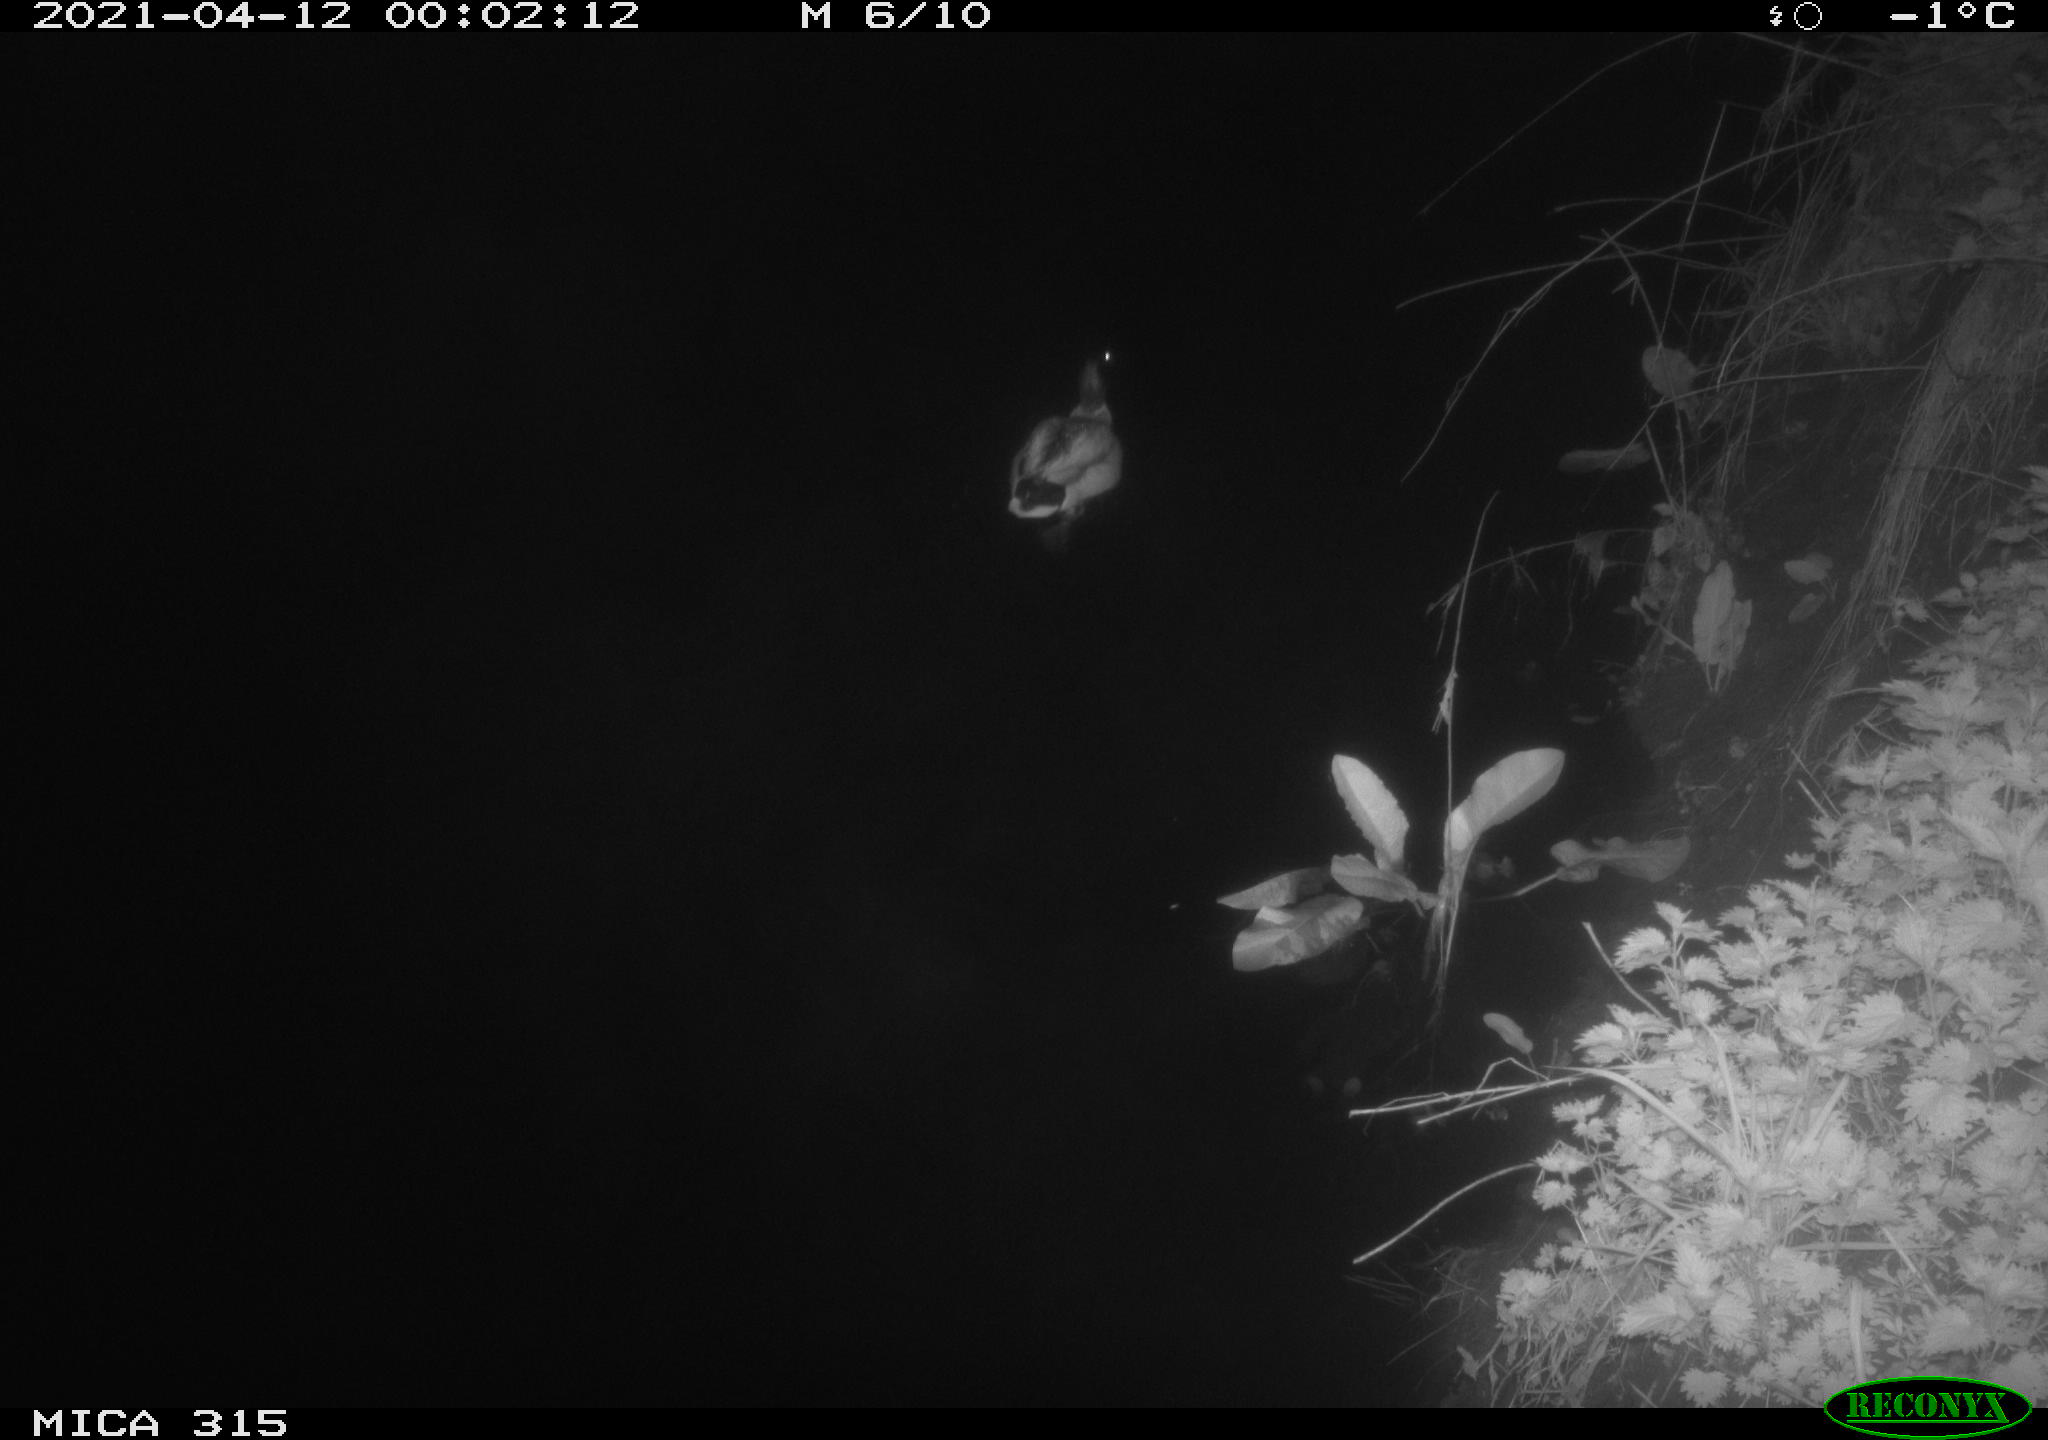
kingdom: Animalia
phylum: Chordata
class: Aves
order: Anseriformes
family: Anatidae
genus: Anas
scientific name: Anas platyrhynchos
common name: Mallard
